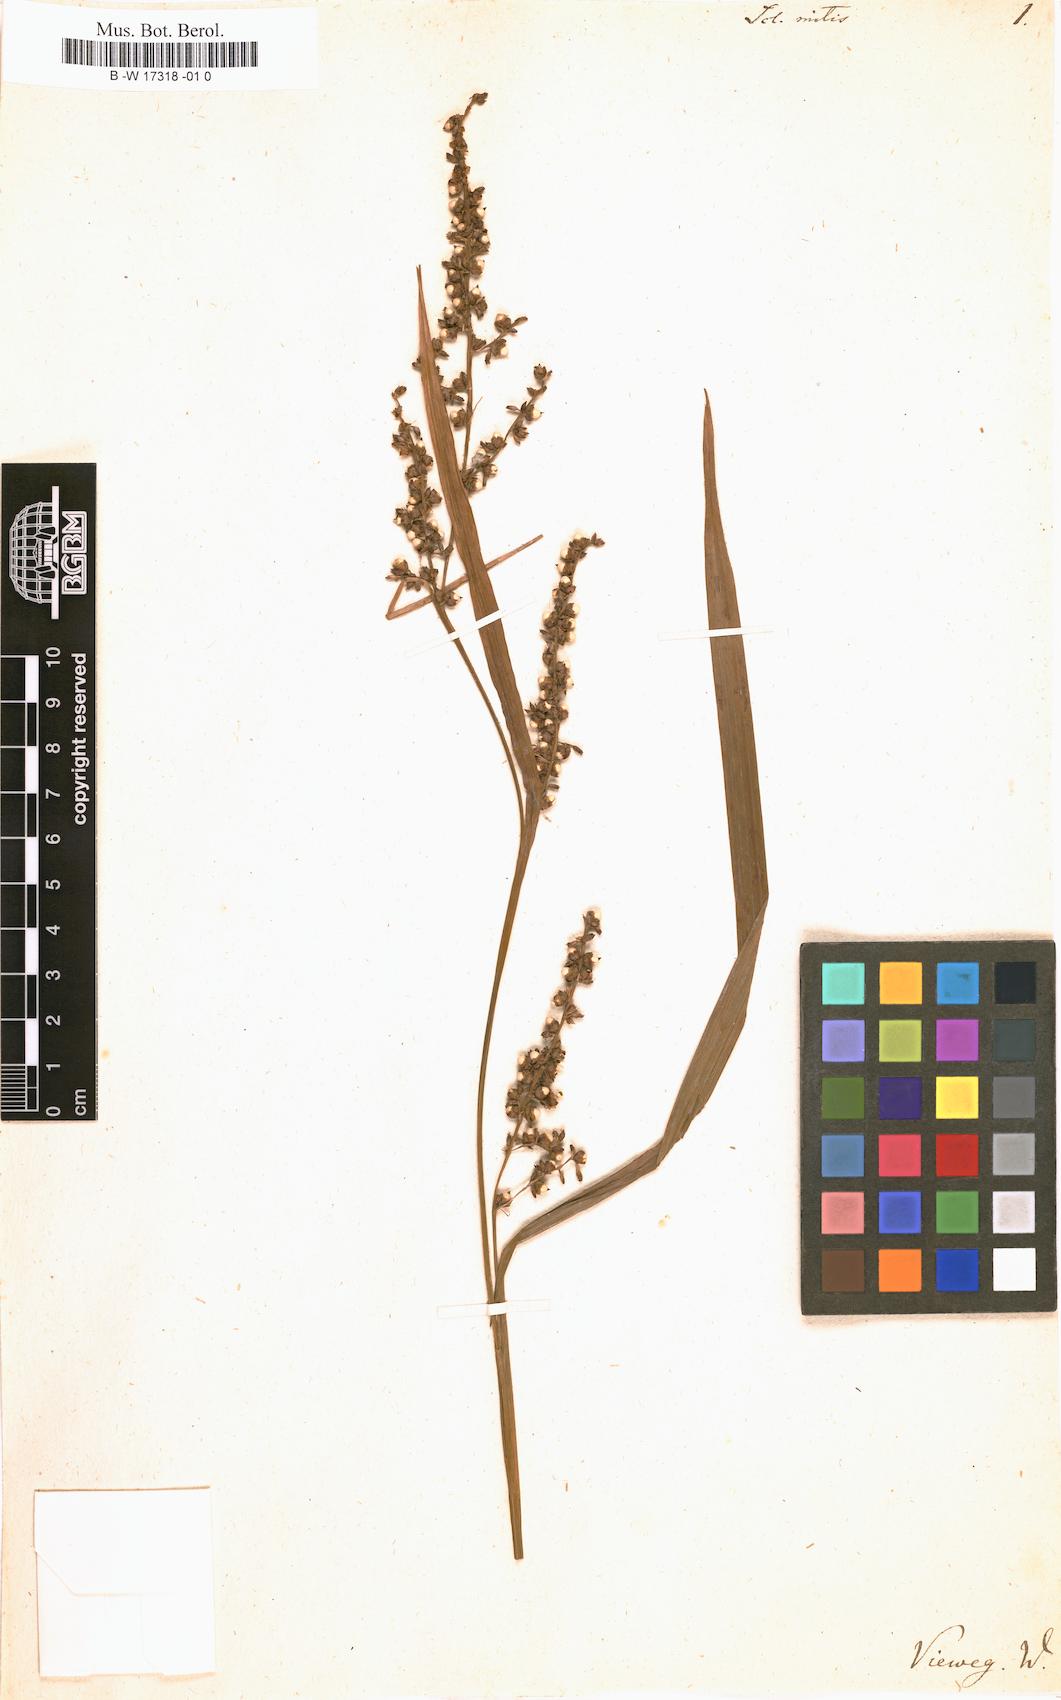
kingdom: Plantae
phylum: Tracheophyta
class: Liliopsida
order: Poales
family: Cyperaceae
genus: Scleria
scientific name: Scleria mitis
